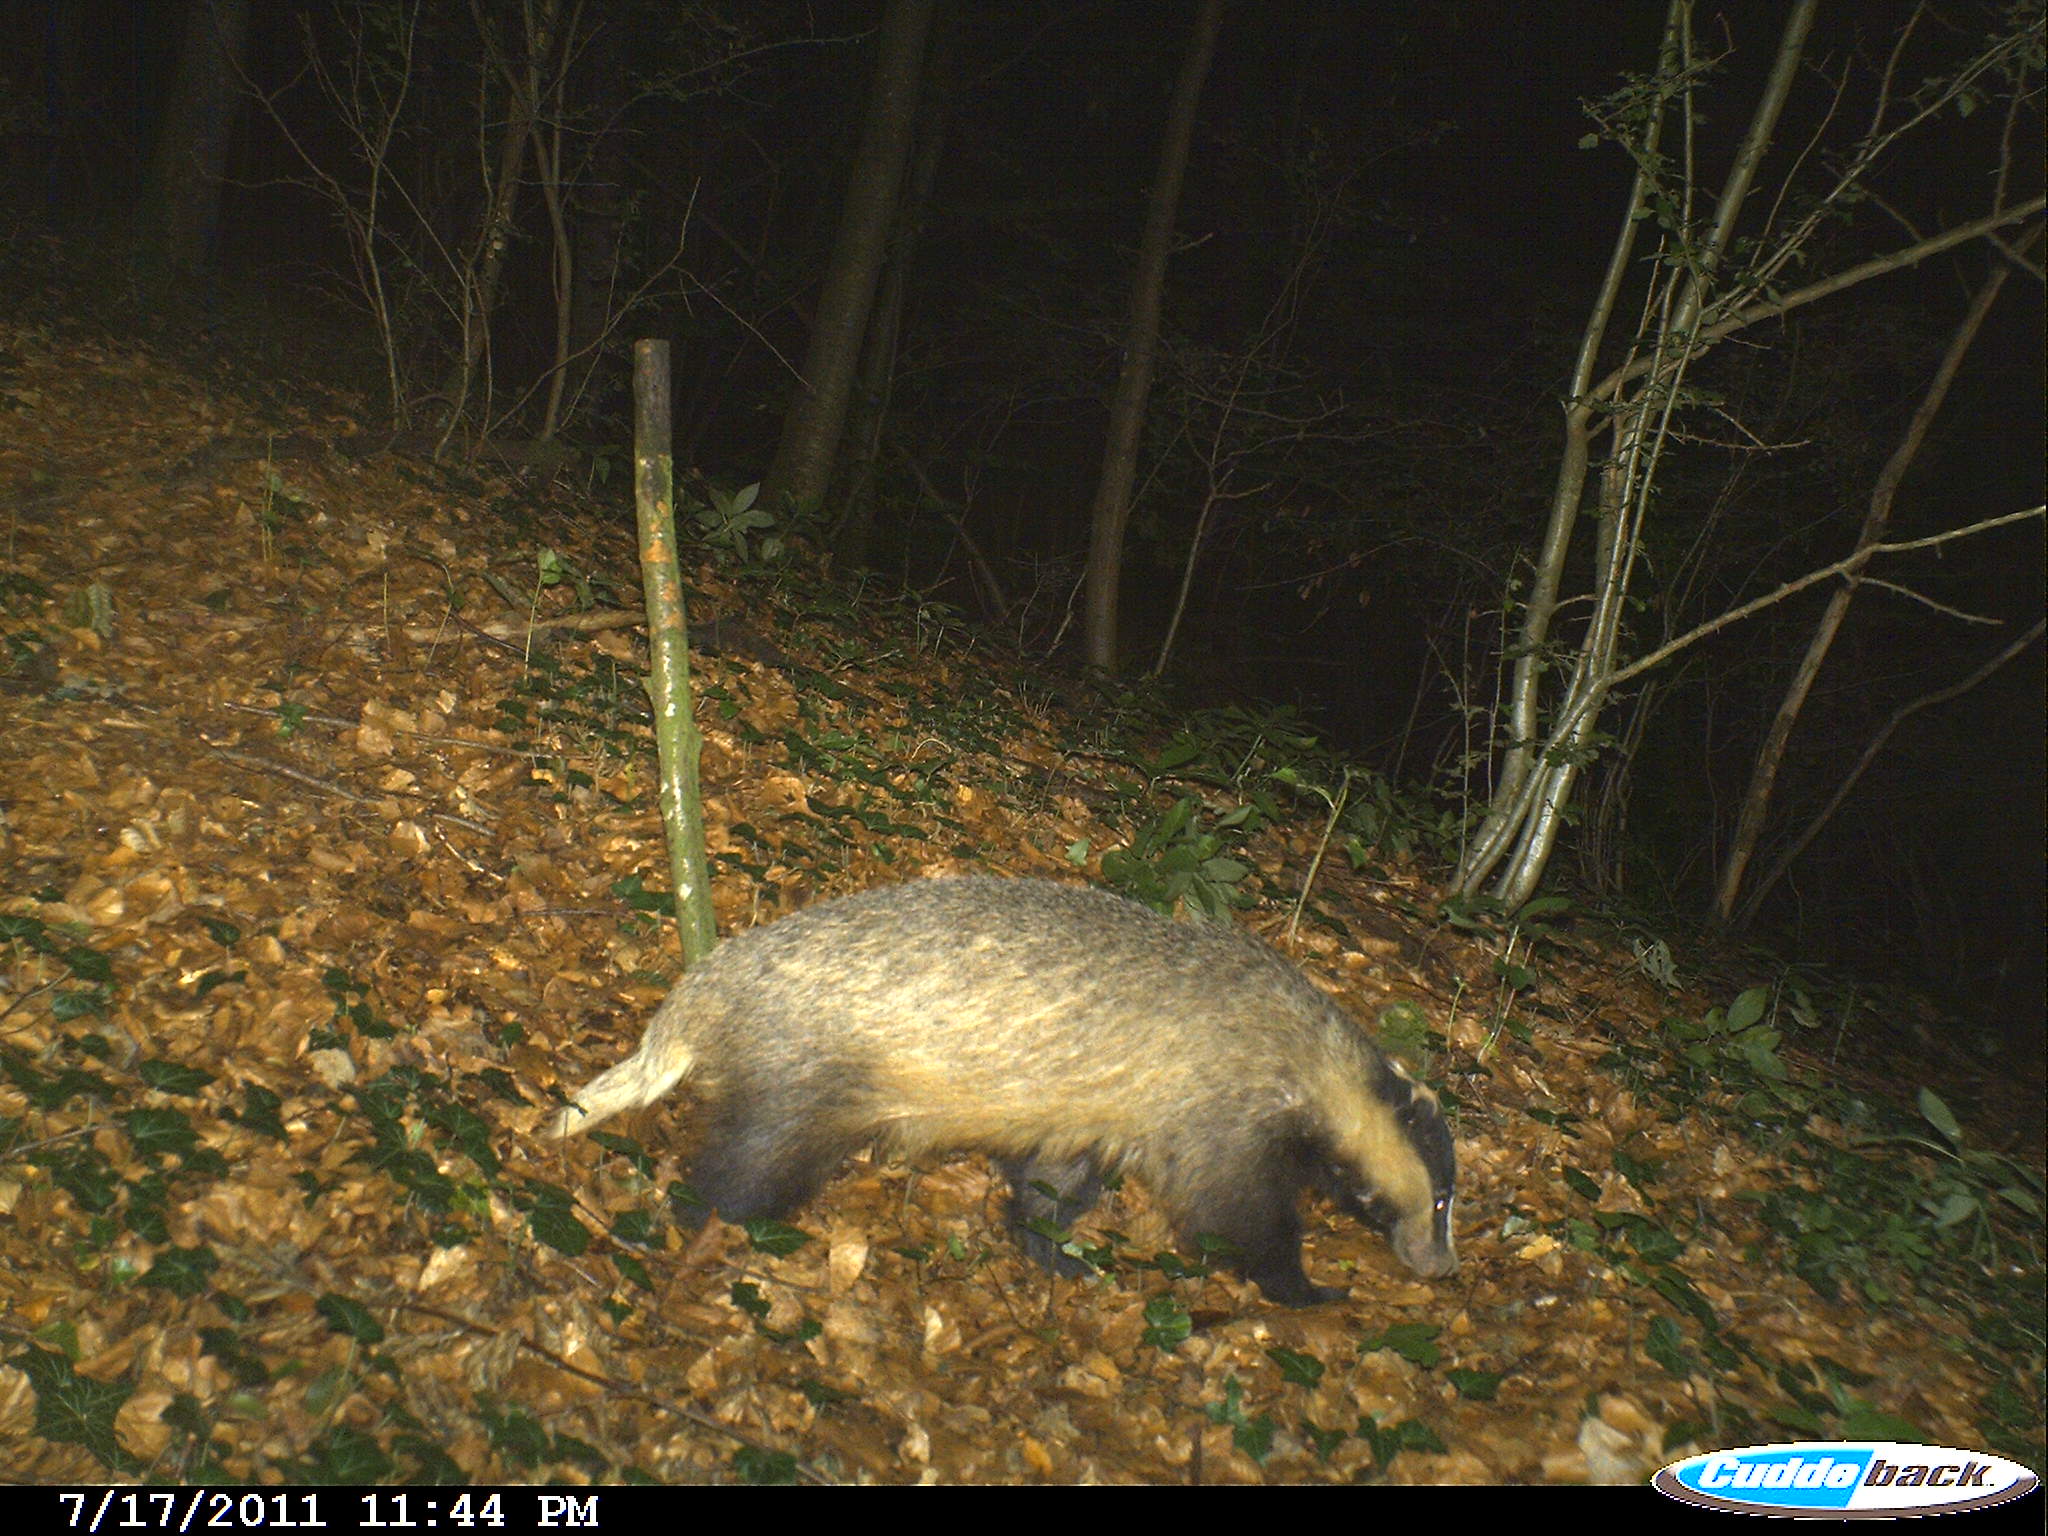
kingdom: Animalia
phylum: Chordata
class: Mammalia
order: Carnivora
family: Mustelidae
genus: Meles
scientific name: Meles meles
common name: Eurasian badger
